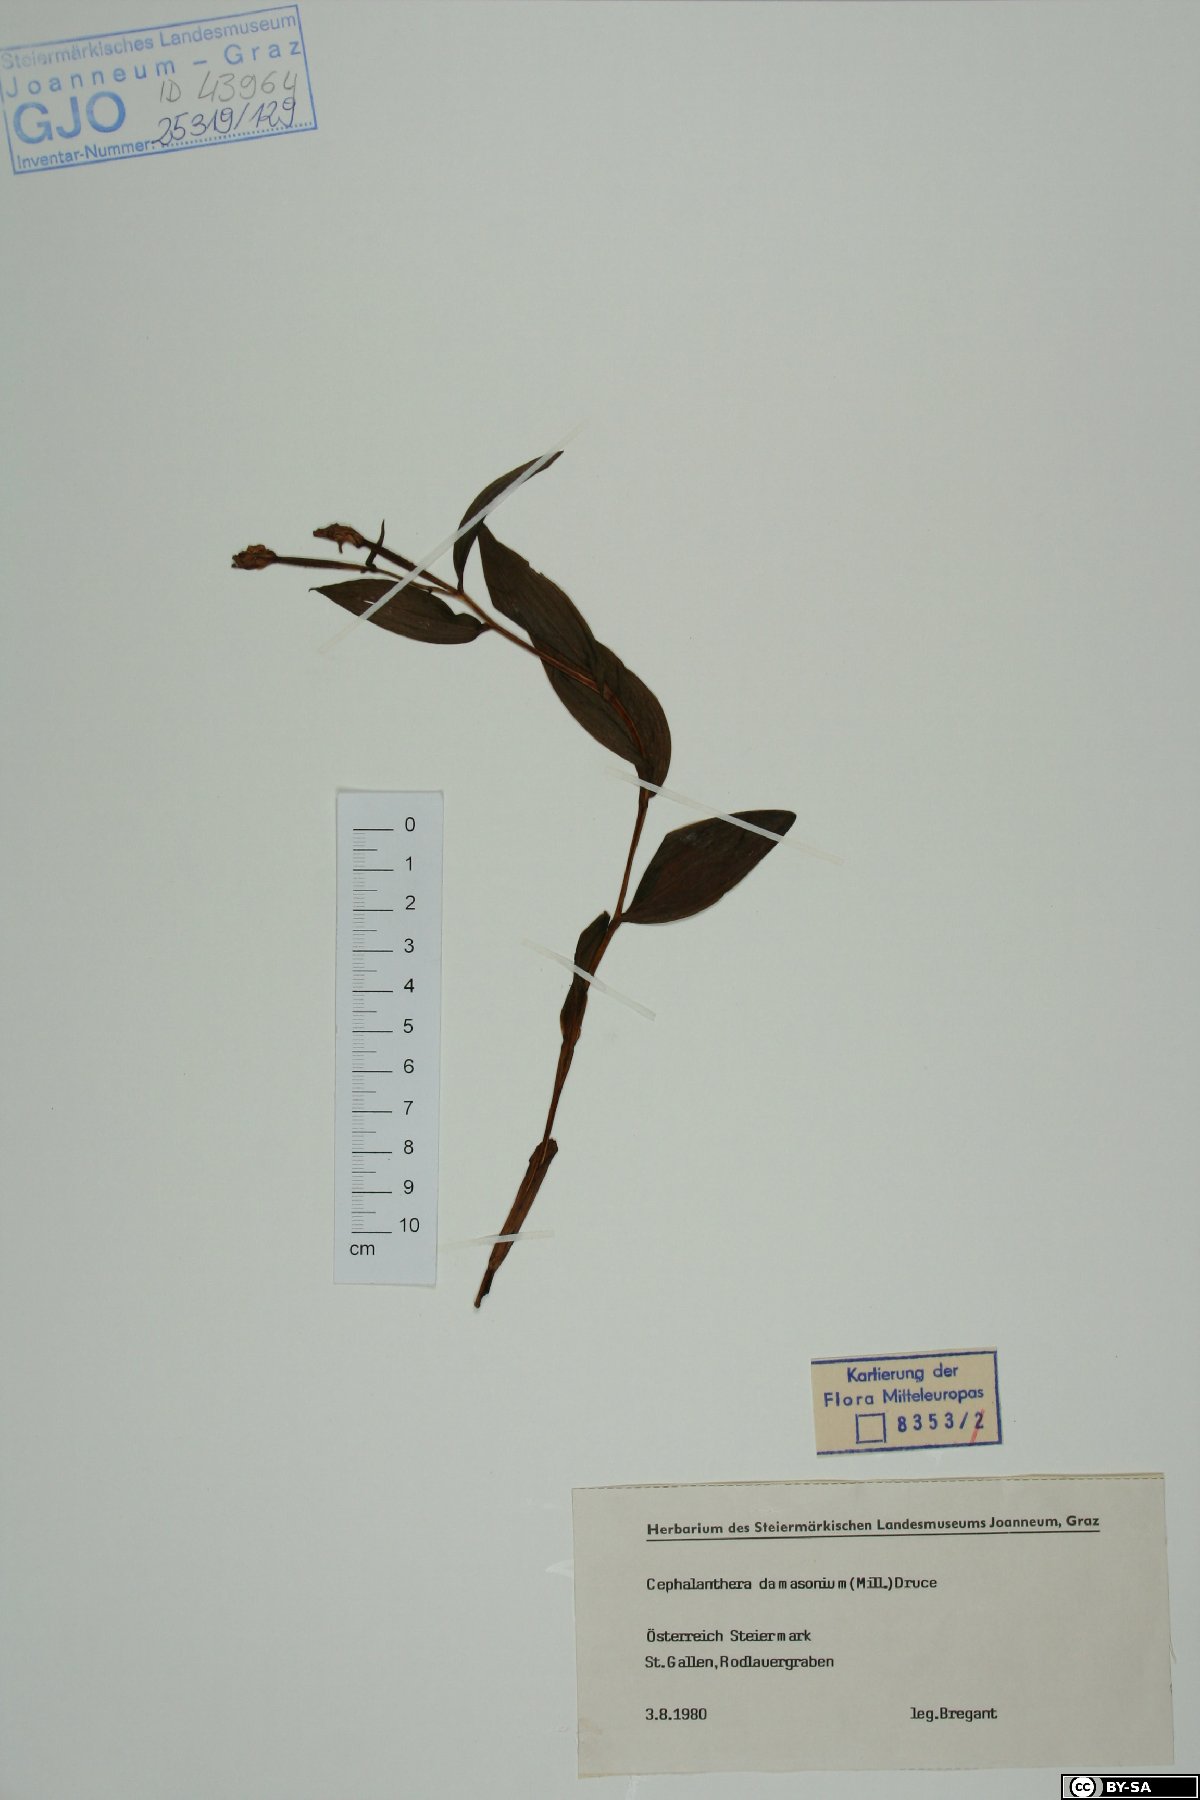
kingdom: Plantae
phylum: Tracheophyta
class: Liliopsida
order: Asparagales
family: Orchidaceae
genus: Cephalanthera
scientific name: Cephalanthera damasonium
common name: White helleborine
